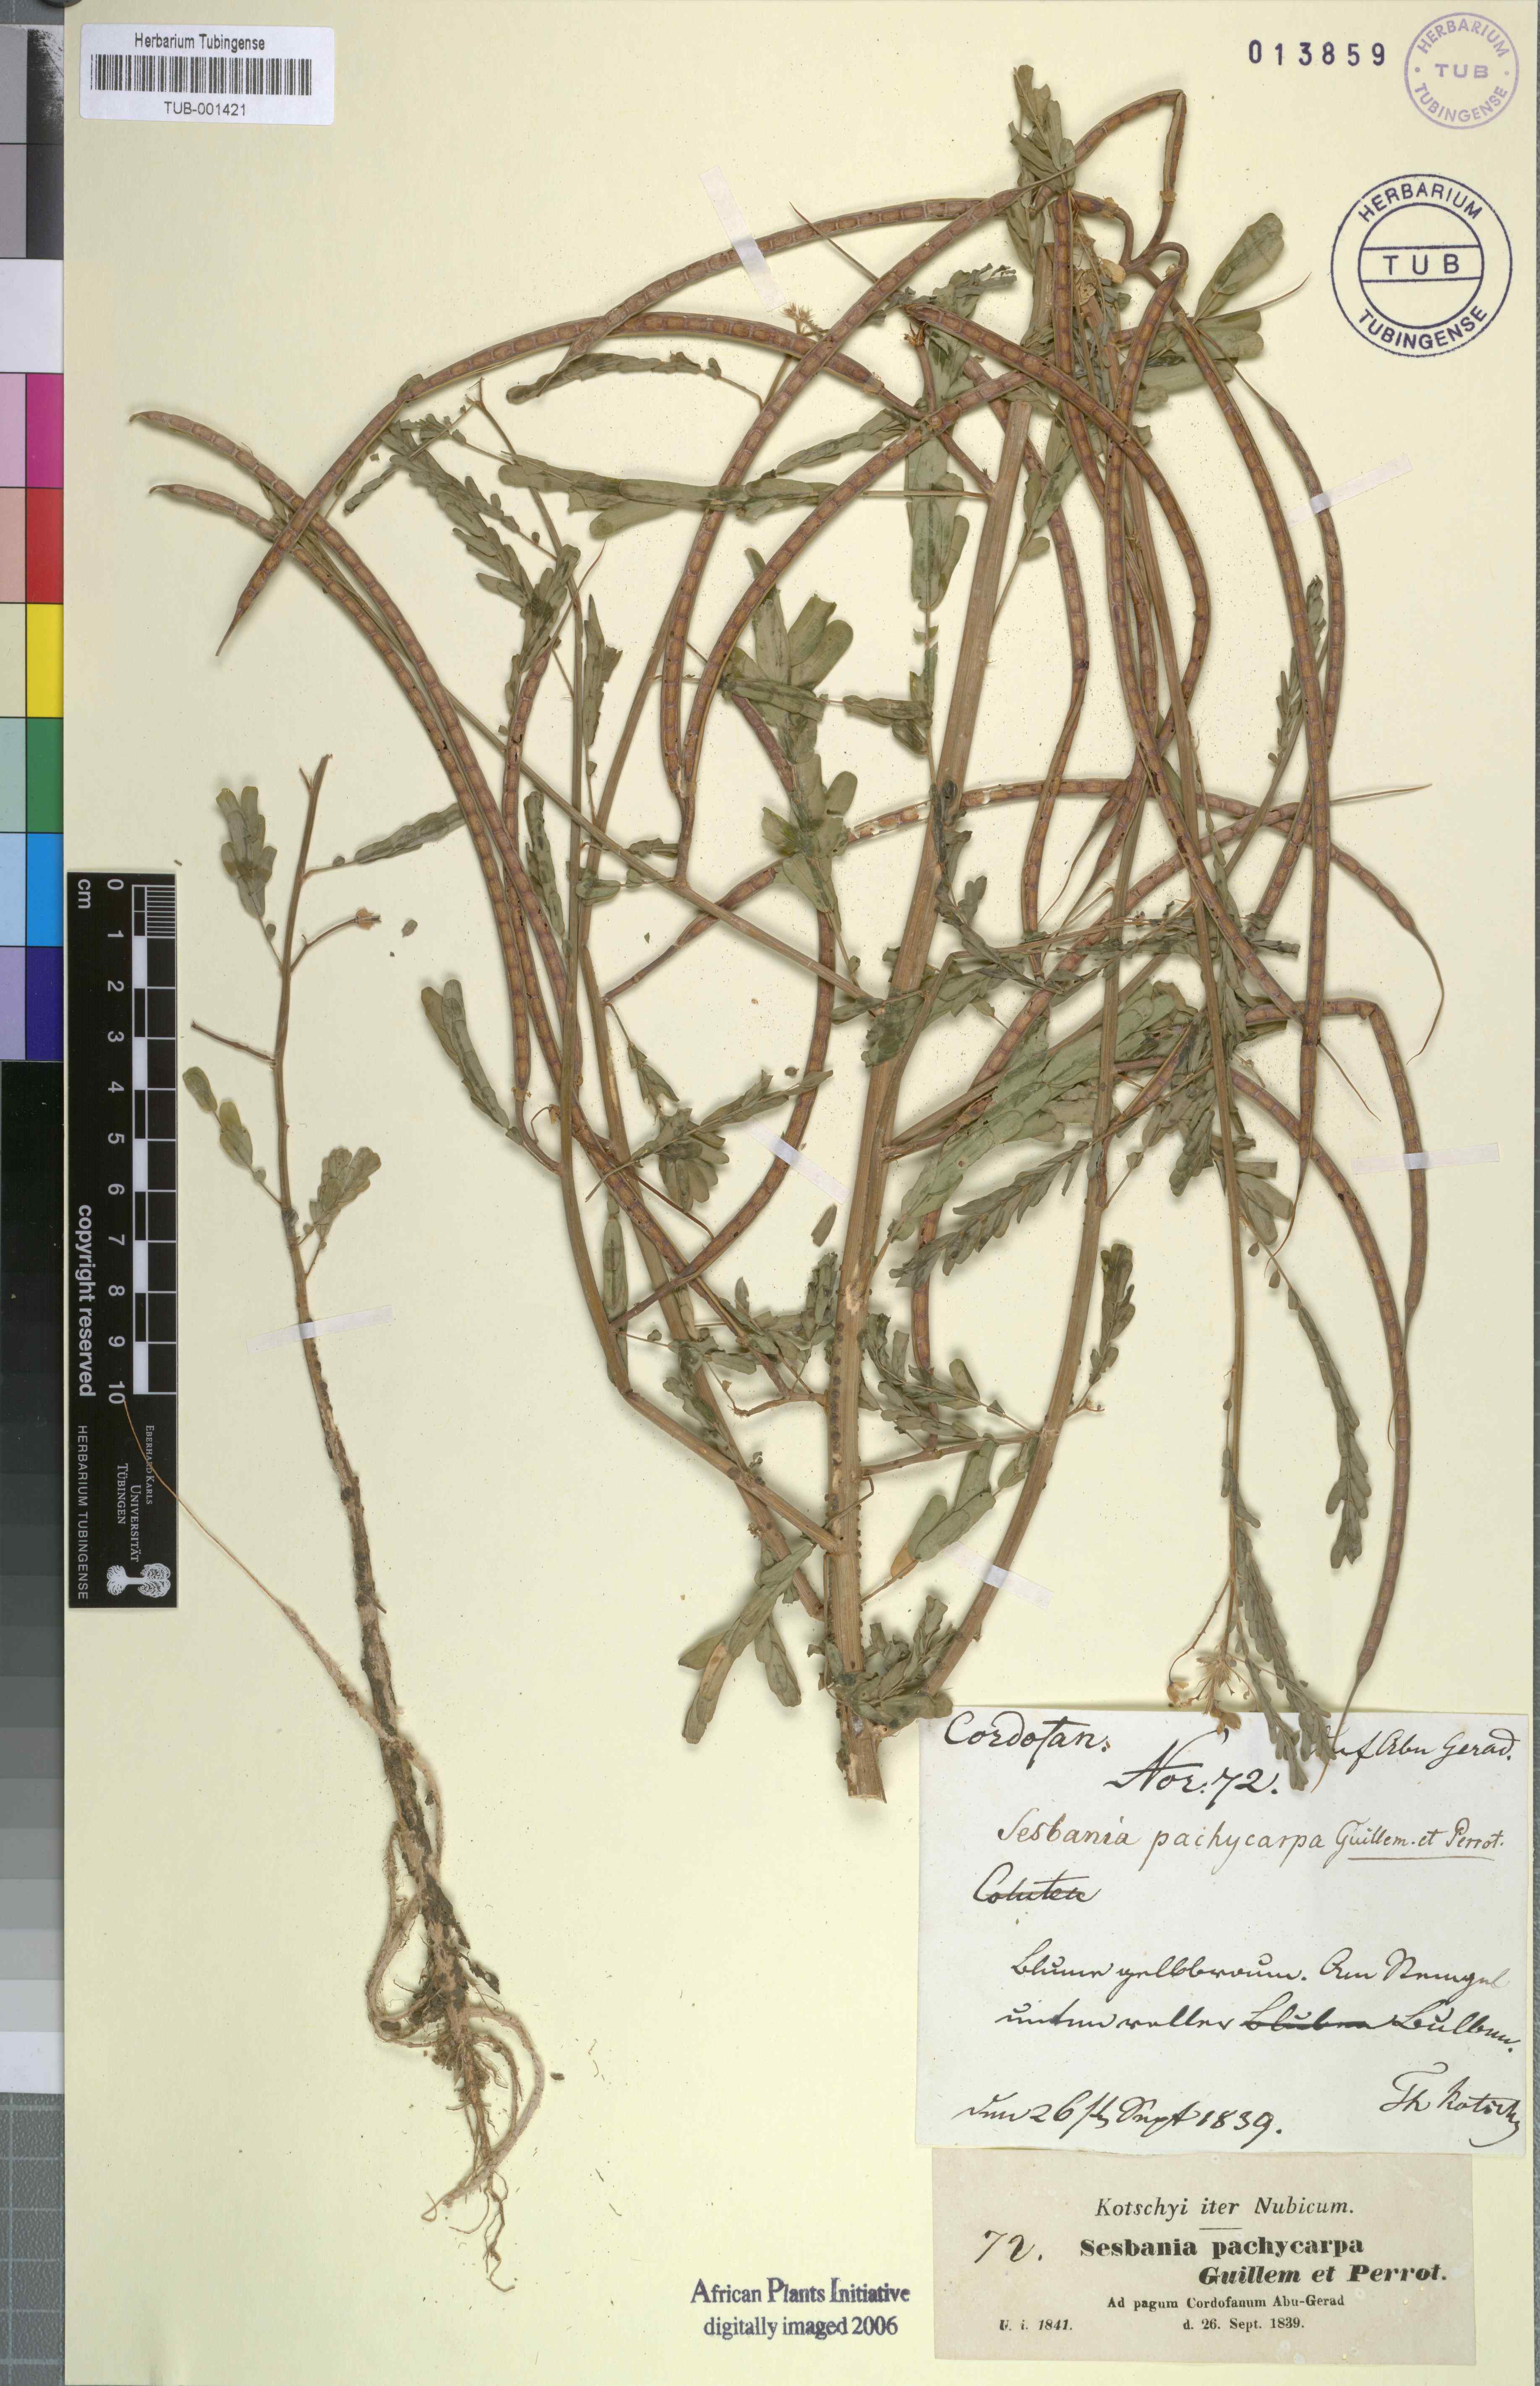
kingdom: Plantae
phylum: Tracheophyta
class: Magnoliopsida
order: Fabales
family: Fabaceae
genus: Sesbania
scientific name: Sesbania sesban
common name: Egyptian sesban
